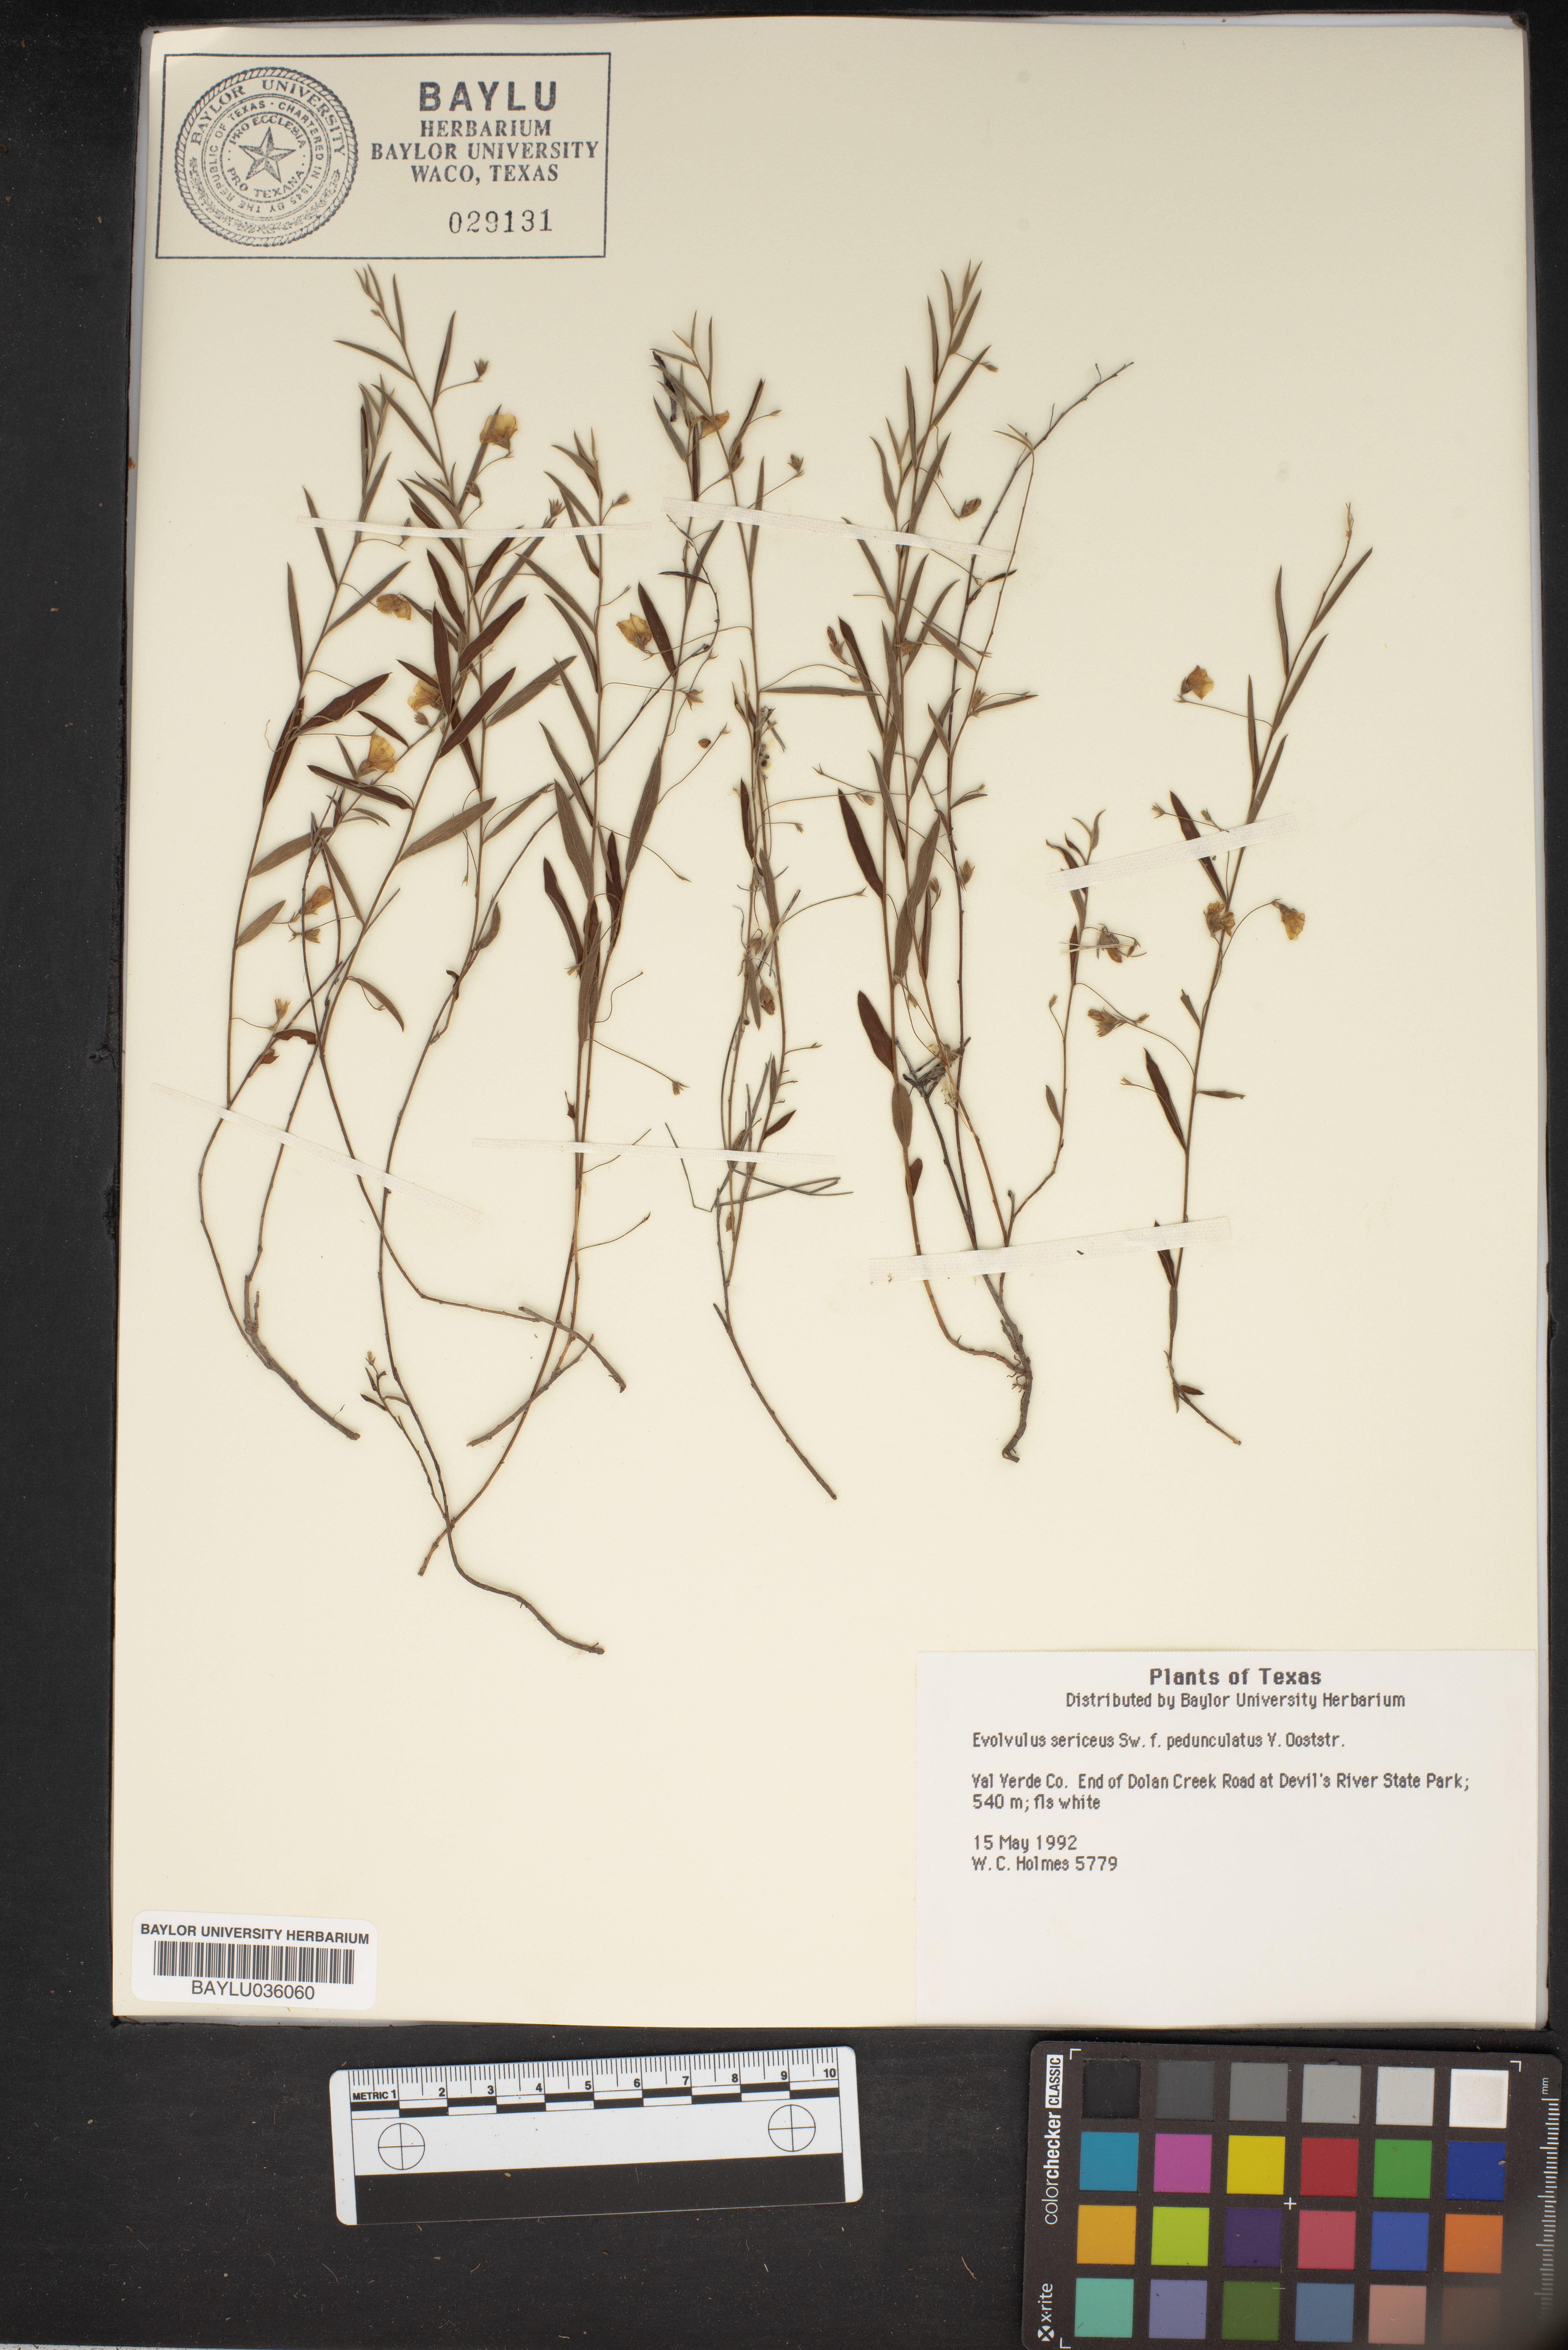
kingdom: Plantae
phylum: Tracheophyta
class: Magnoliopsida
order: Solanales
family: Convolvulaceae
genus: Evolvulus
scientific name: Evolvulus sericeus
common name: Blue dots
